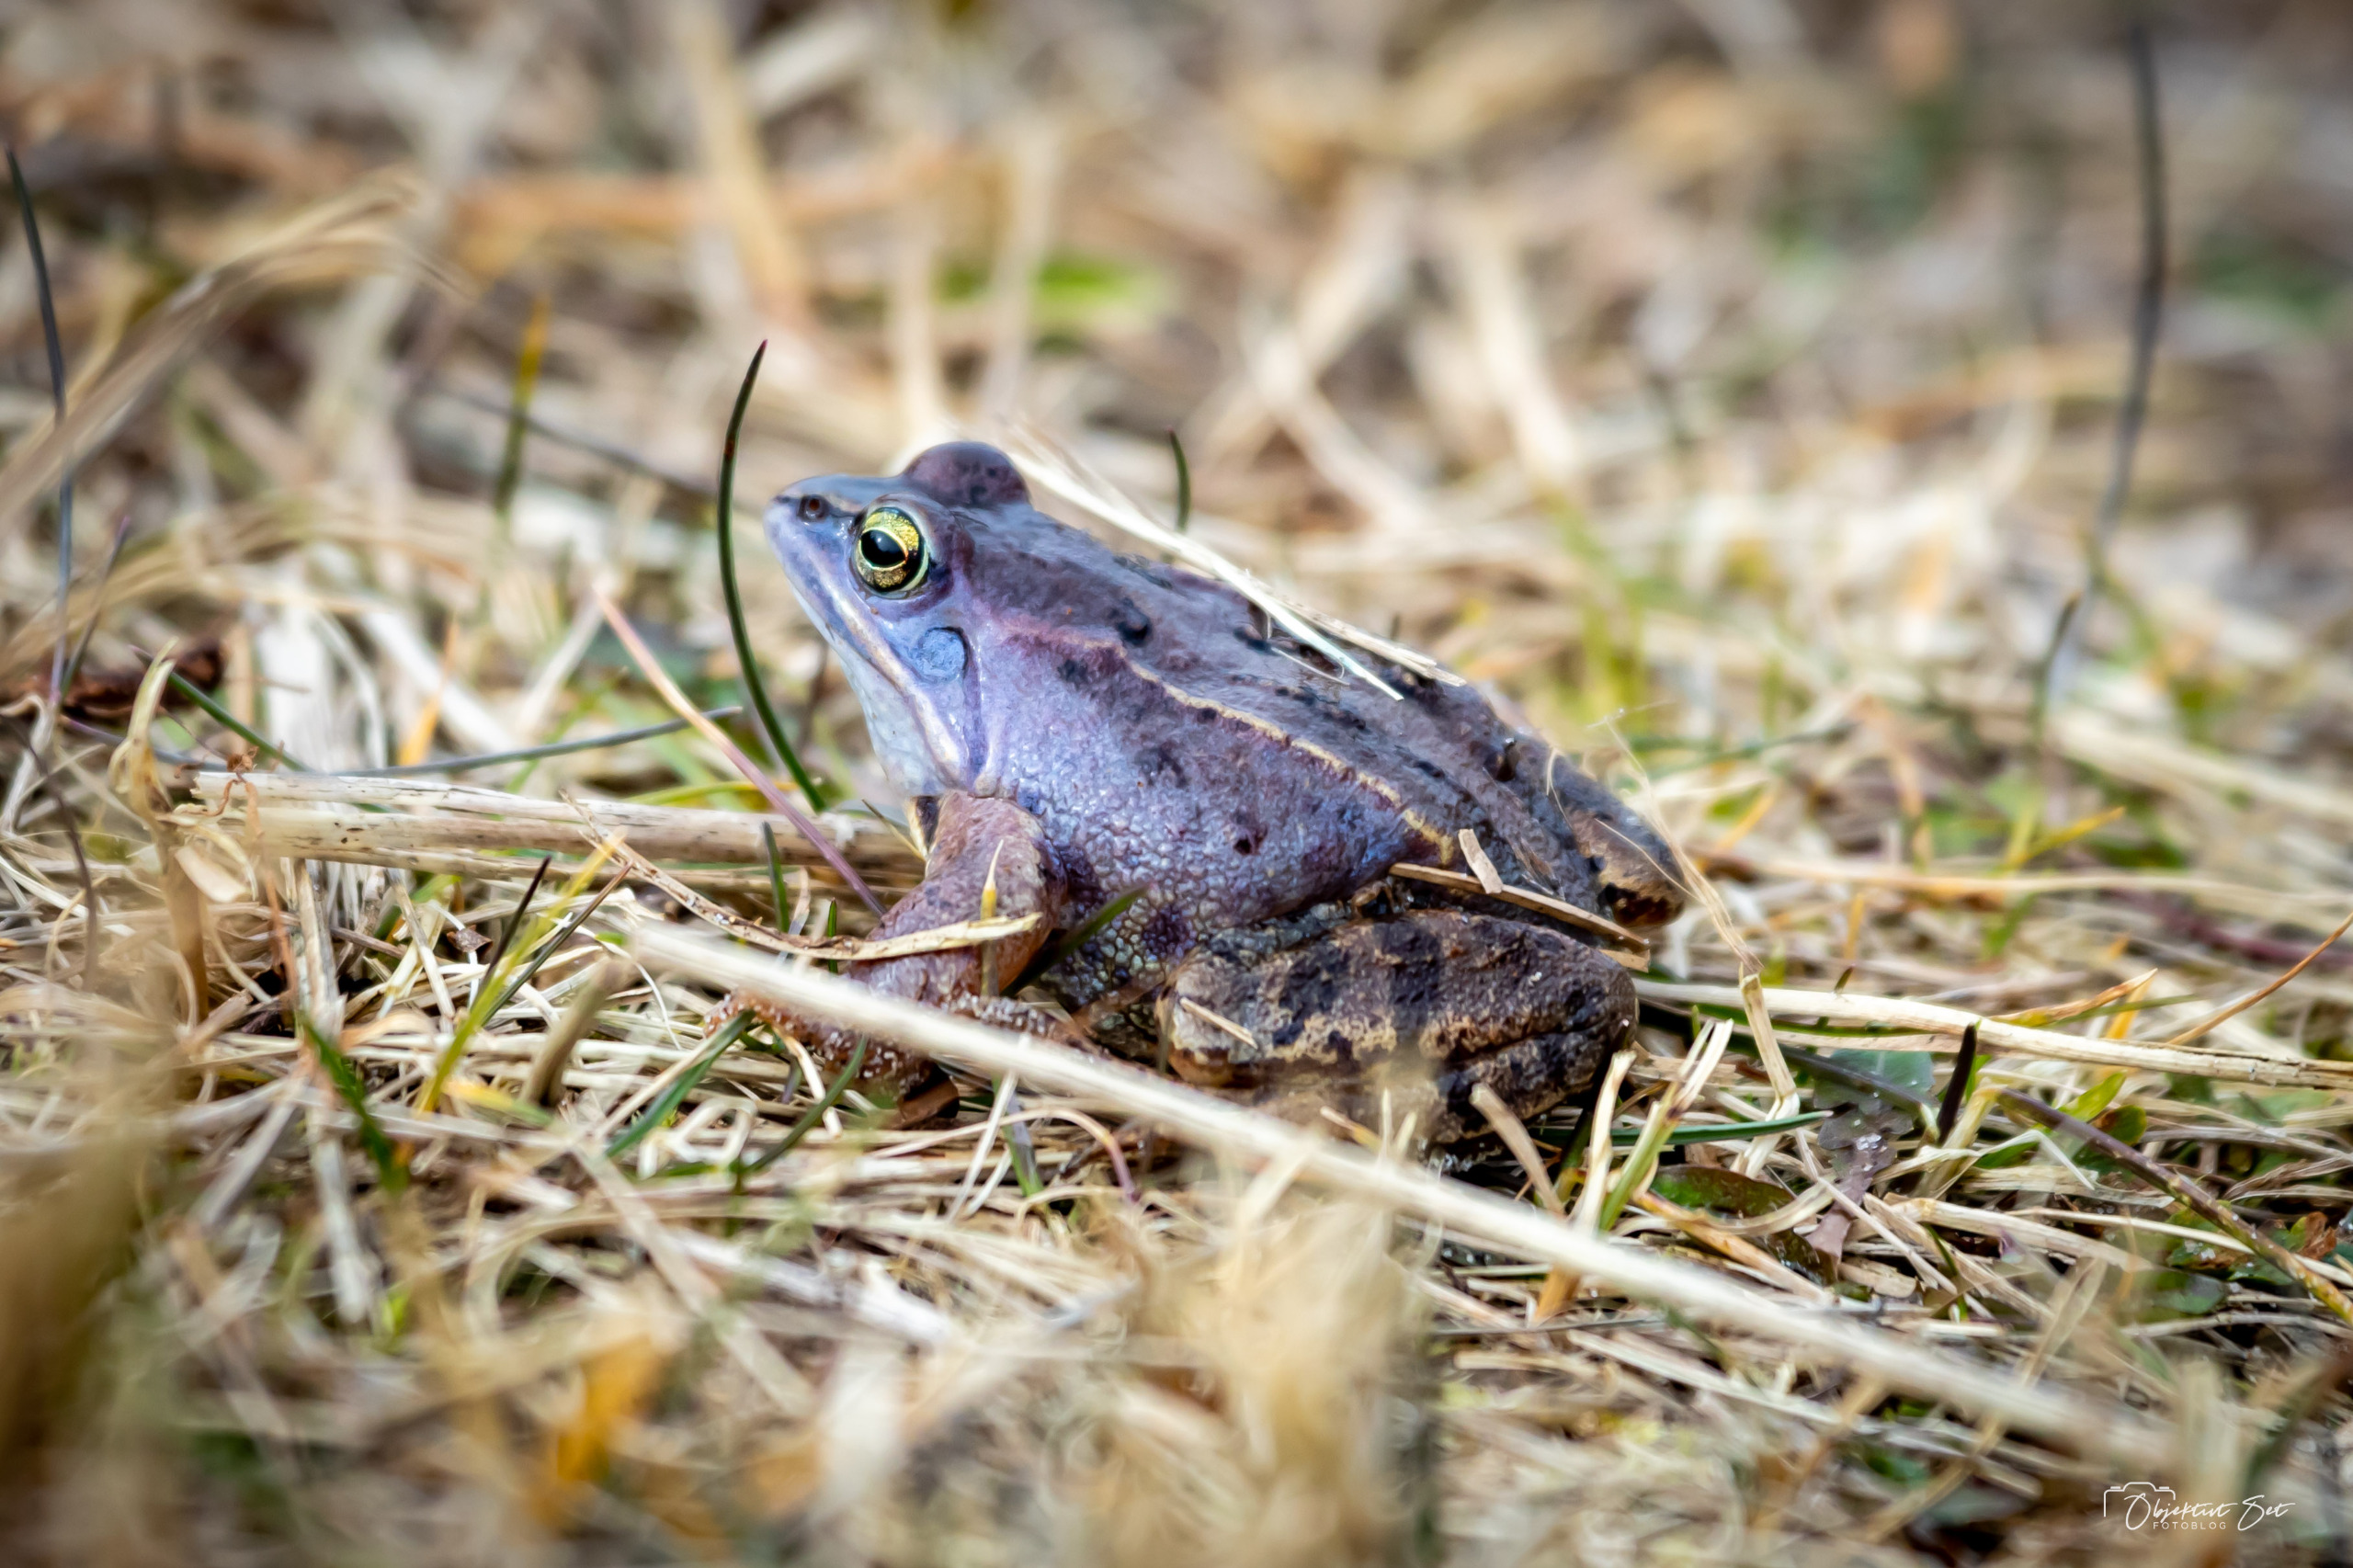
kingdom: Animalia
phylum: Chordata
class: Amphibia
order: Anura
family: Ranidae
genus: Rana
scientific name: Rana arvalis
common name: Spidssnudet frø
